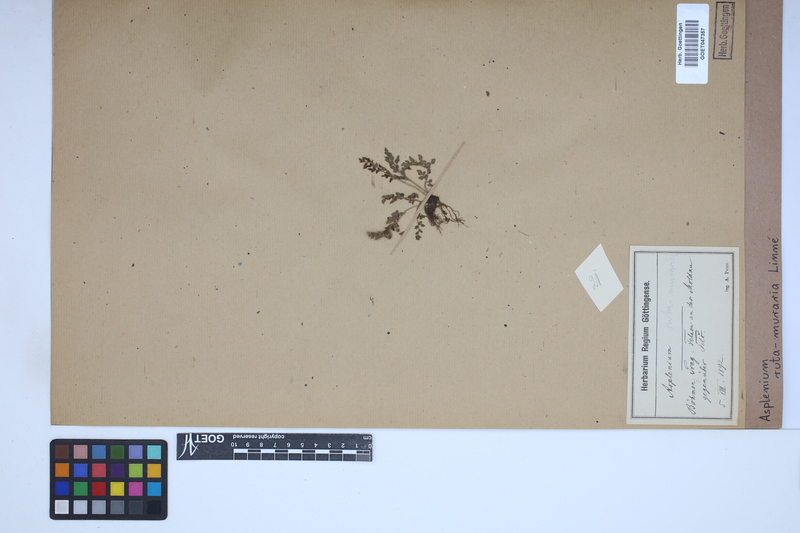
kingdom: Plantae
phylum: Tracheophyta
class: Polypodiopsida
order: Polypodiales
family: Aspleniaceae
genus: Asplenium
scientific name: Asplenium ruta-muraria
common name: Wall-rue
